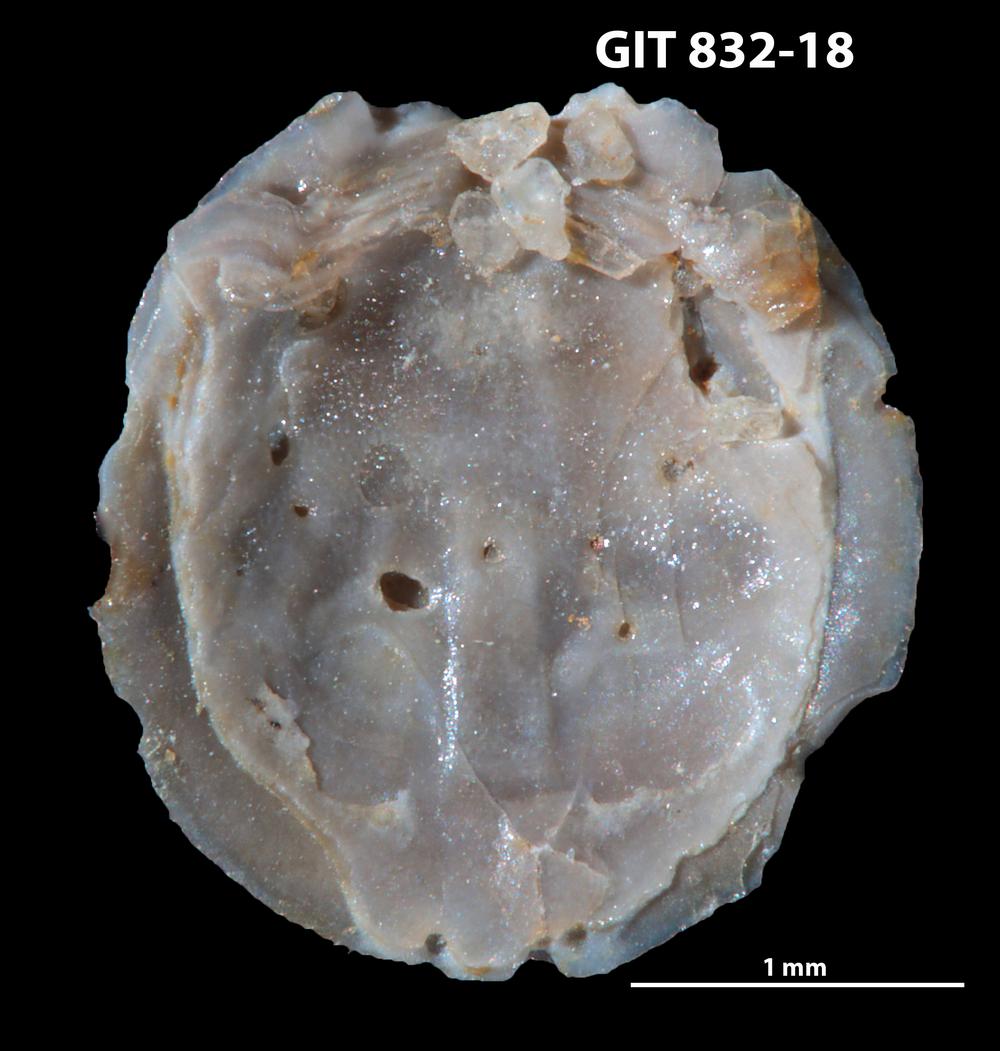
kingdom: Animalia
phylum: Brachiopoda
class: Lingulata
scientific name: Lingulata
